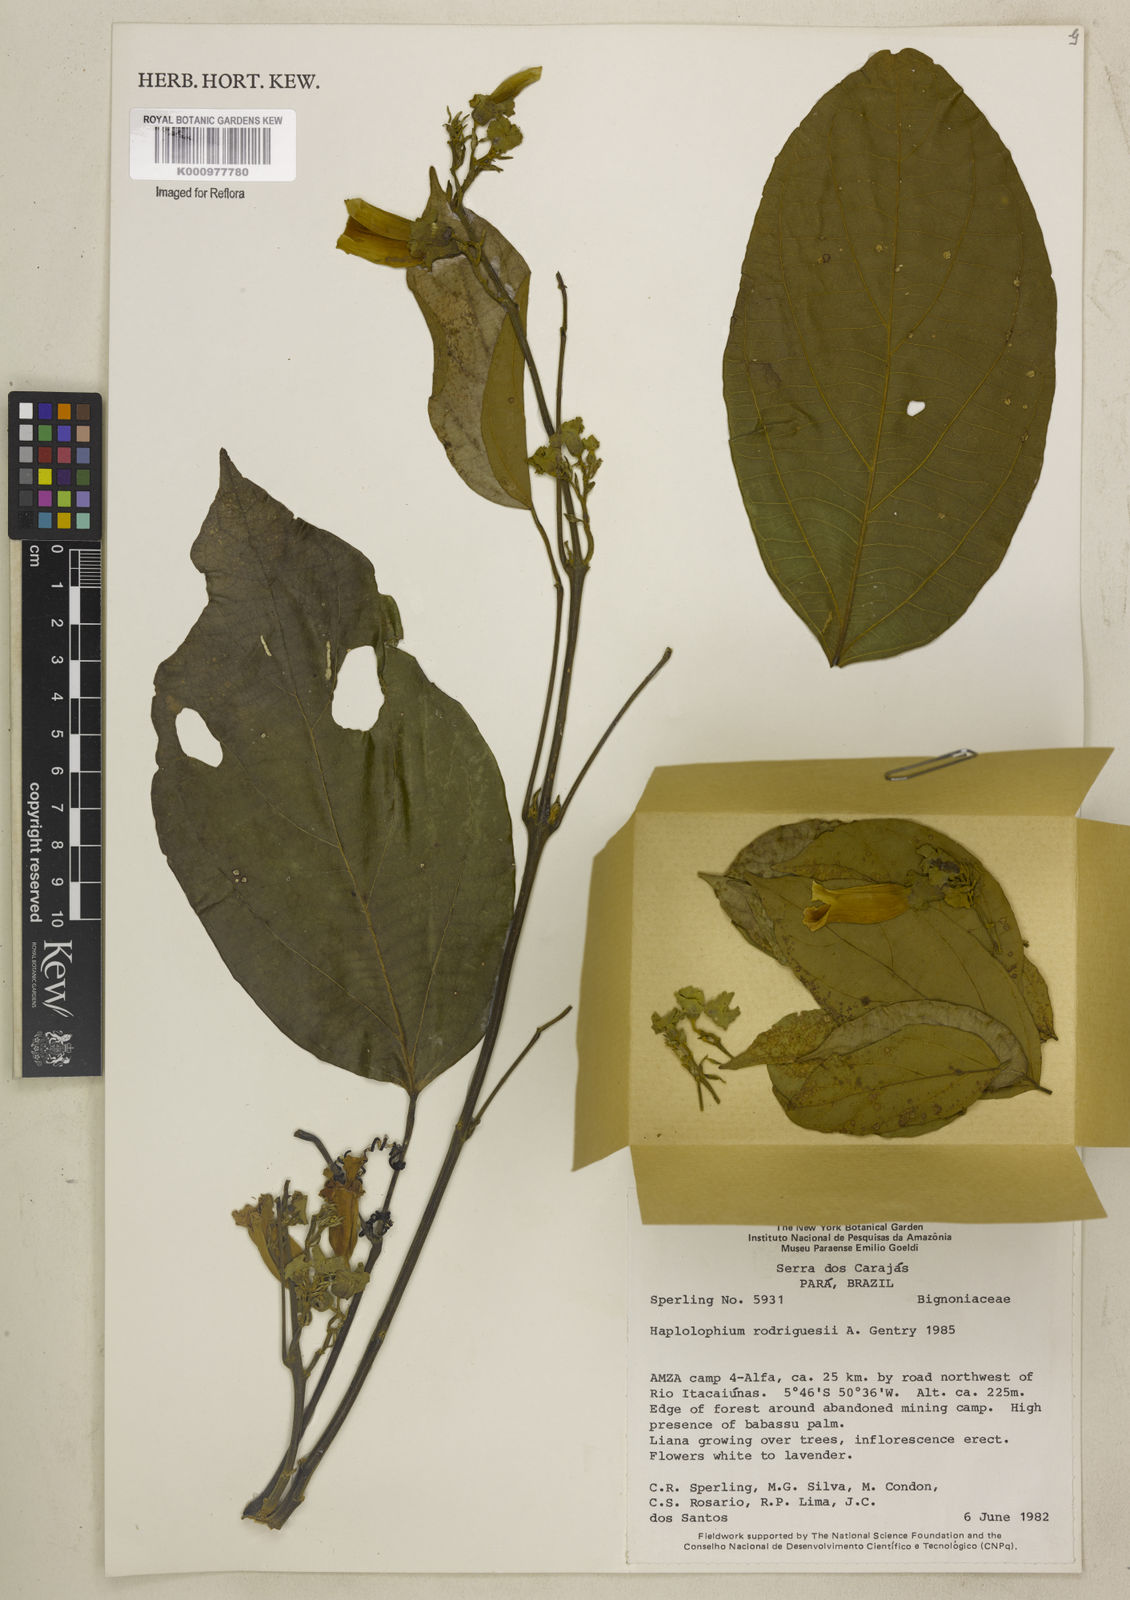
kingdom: Plantae
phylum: Tracheophyta
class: Magnoliopsida
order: Lamiales
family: Bignoniaceae
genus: Amphilophium
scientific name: Amphilophium rodriguesii
